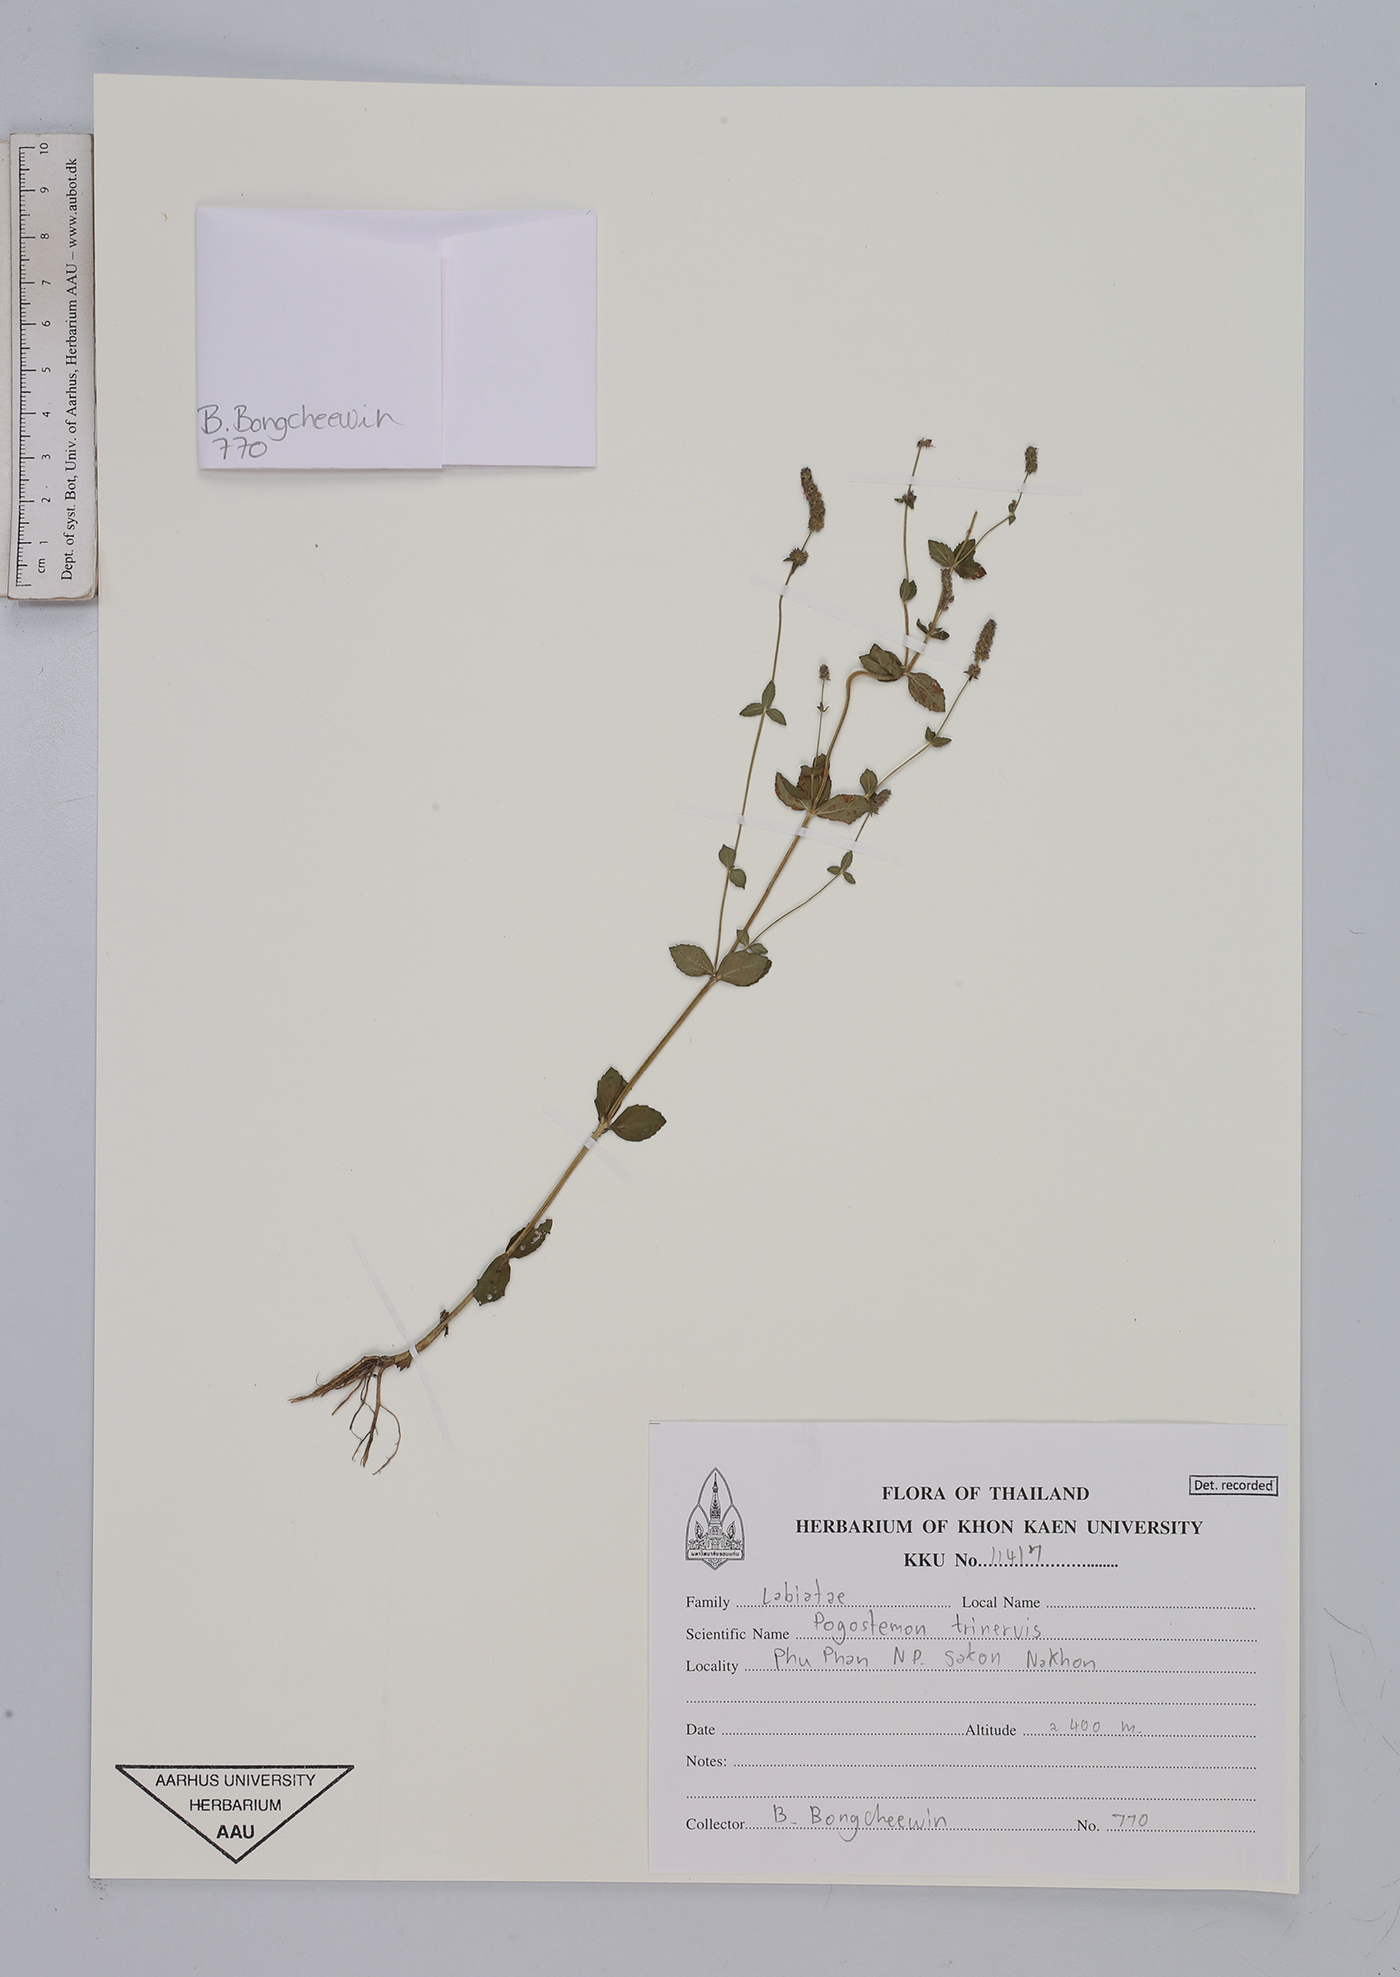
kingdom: Plantae
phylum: Tracheophyta
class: Magnoliopsida
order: Lamiales
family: Lamiaceae
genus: Pogostemon
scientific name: Pogostemon trinervis
